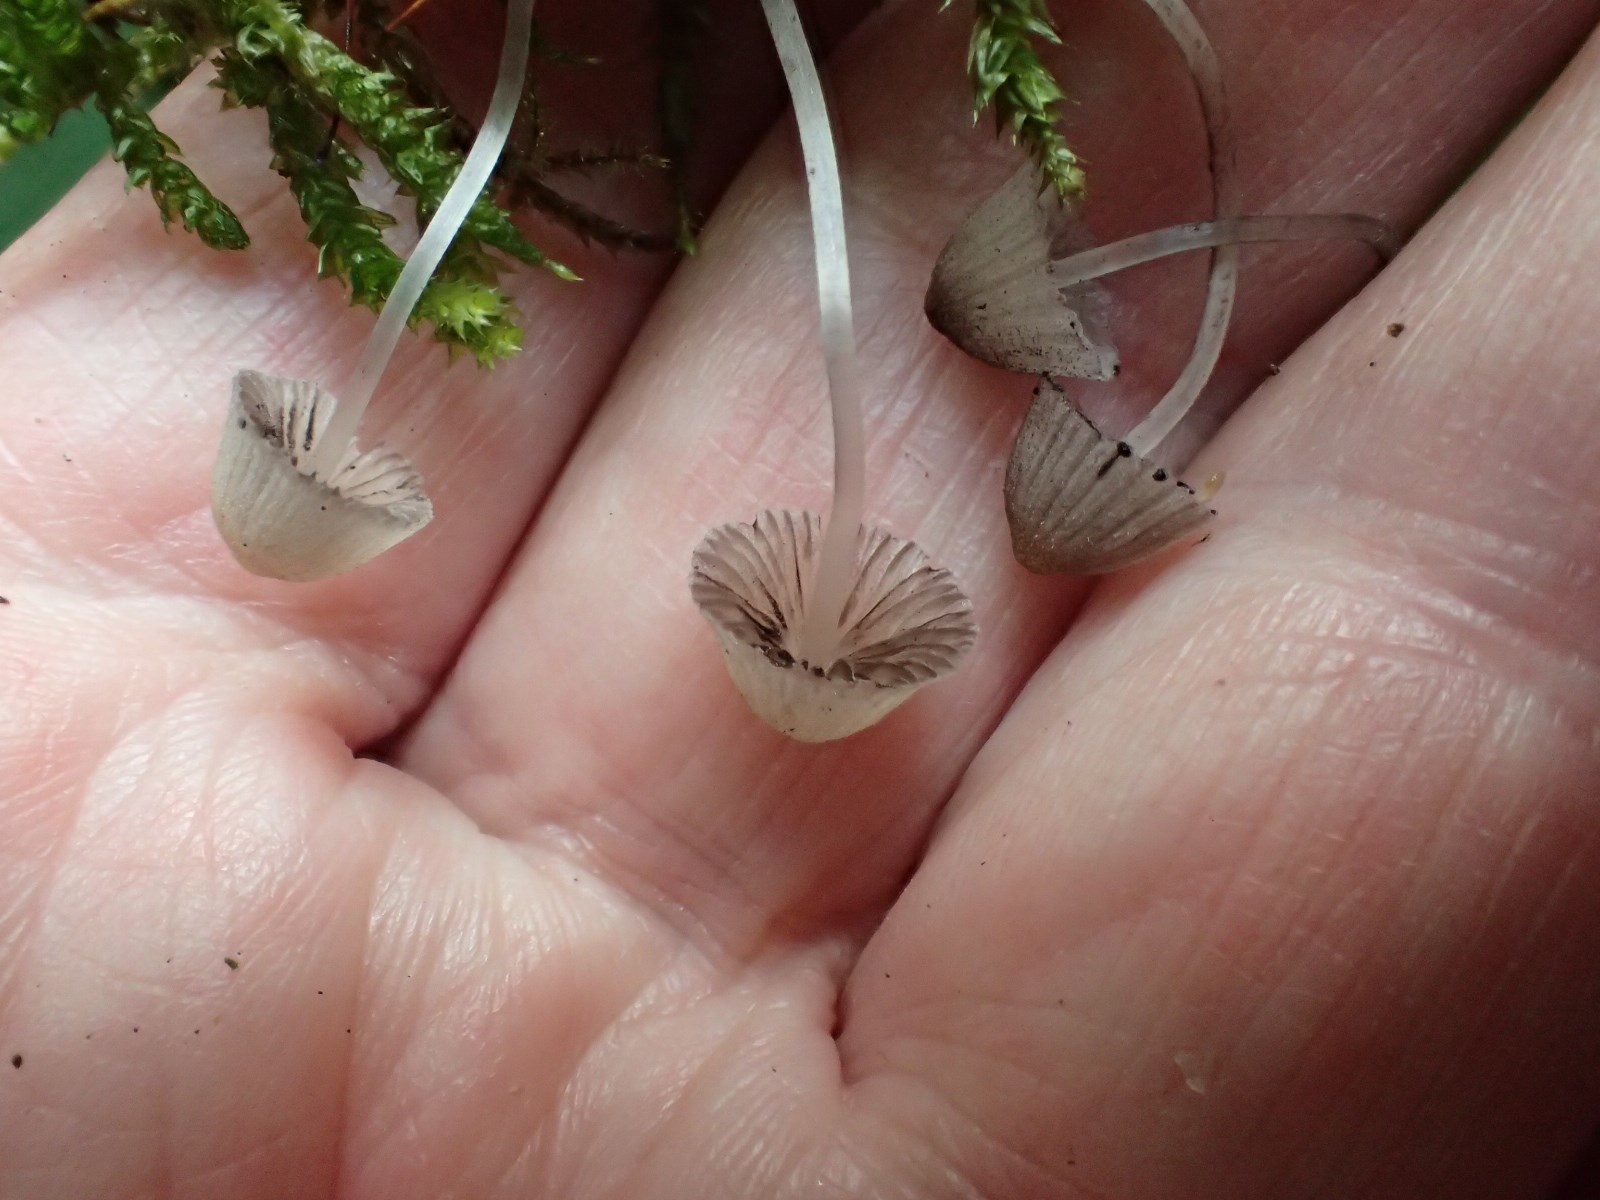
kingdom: Fungi
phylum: Basidiomycota
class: Agaricomycetes
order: Agaricales
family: Psathyrellaceae
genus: Coprinellus
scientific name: Coprinellus disseminatus
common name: bredsået blækhat
